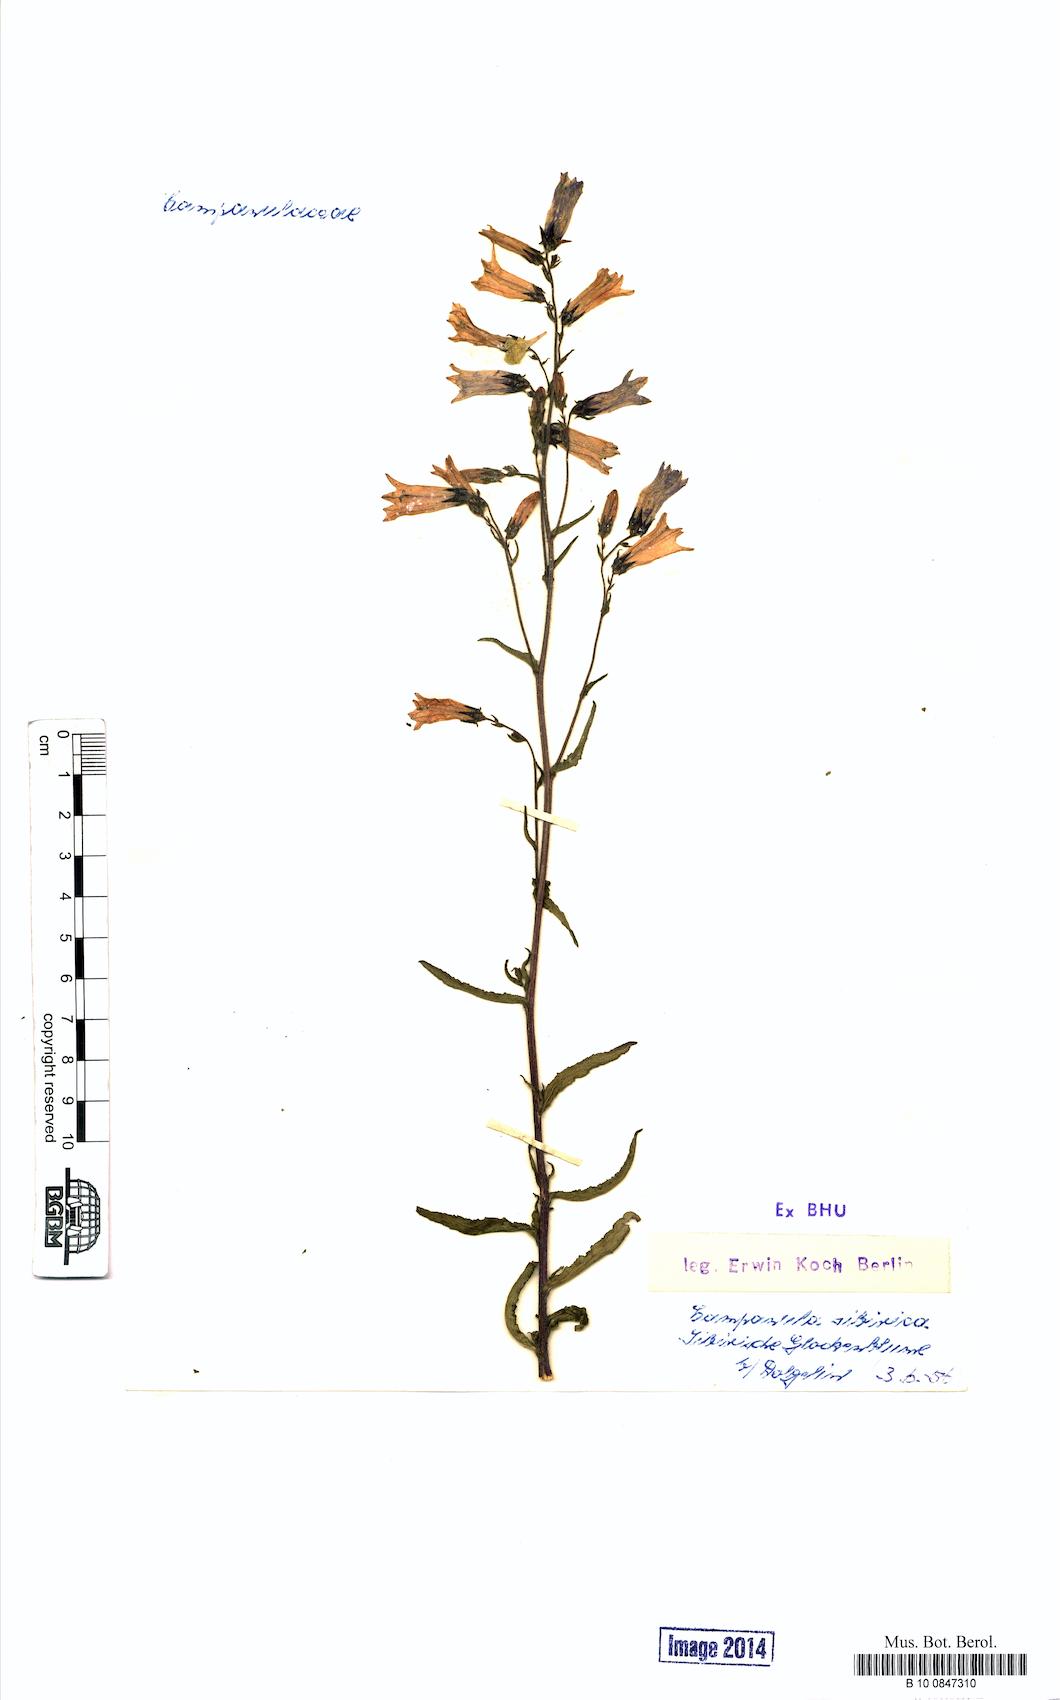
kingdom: Plantae
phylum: Tracheophyta
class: Magnoliopsida
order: Asterales
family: Campanulaceae
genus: Campanula
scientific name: Campanula sibirica
